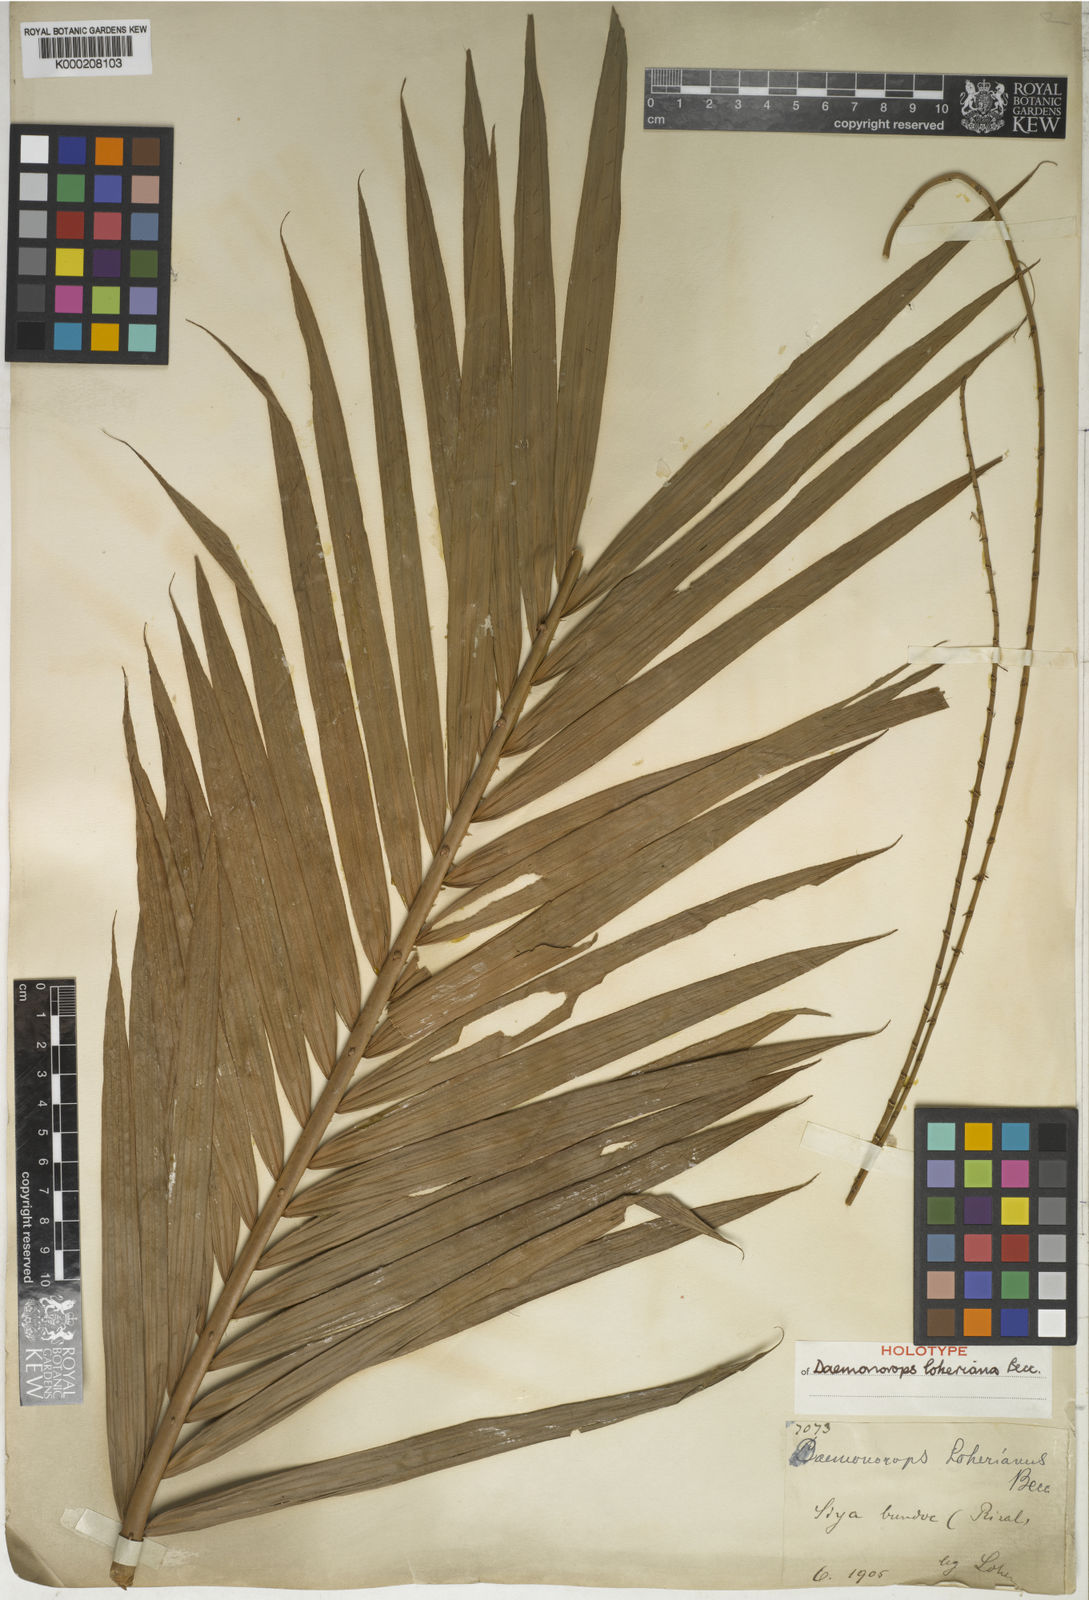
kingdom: Plantae
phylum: Tracheophyta
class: Liliopsida
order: Arecales
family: Arecaceae
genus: Calamus
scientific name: Calamus loherianus
